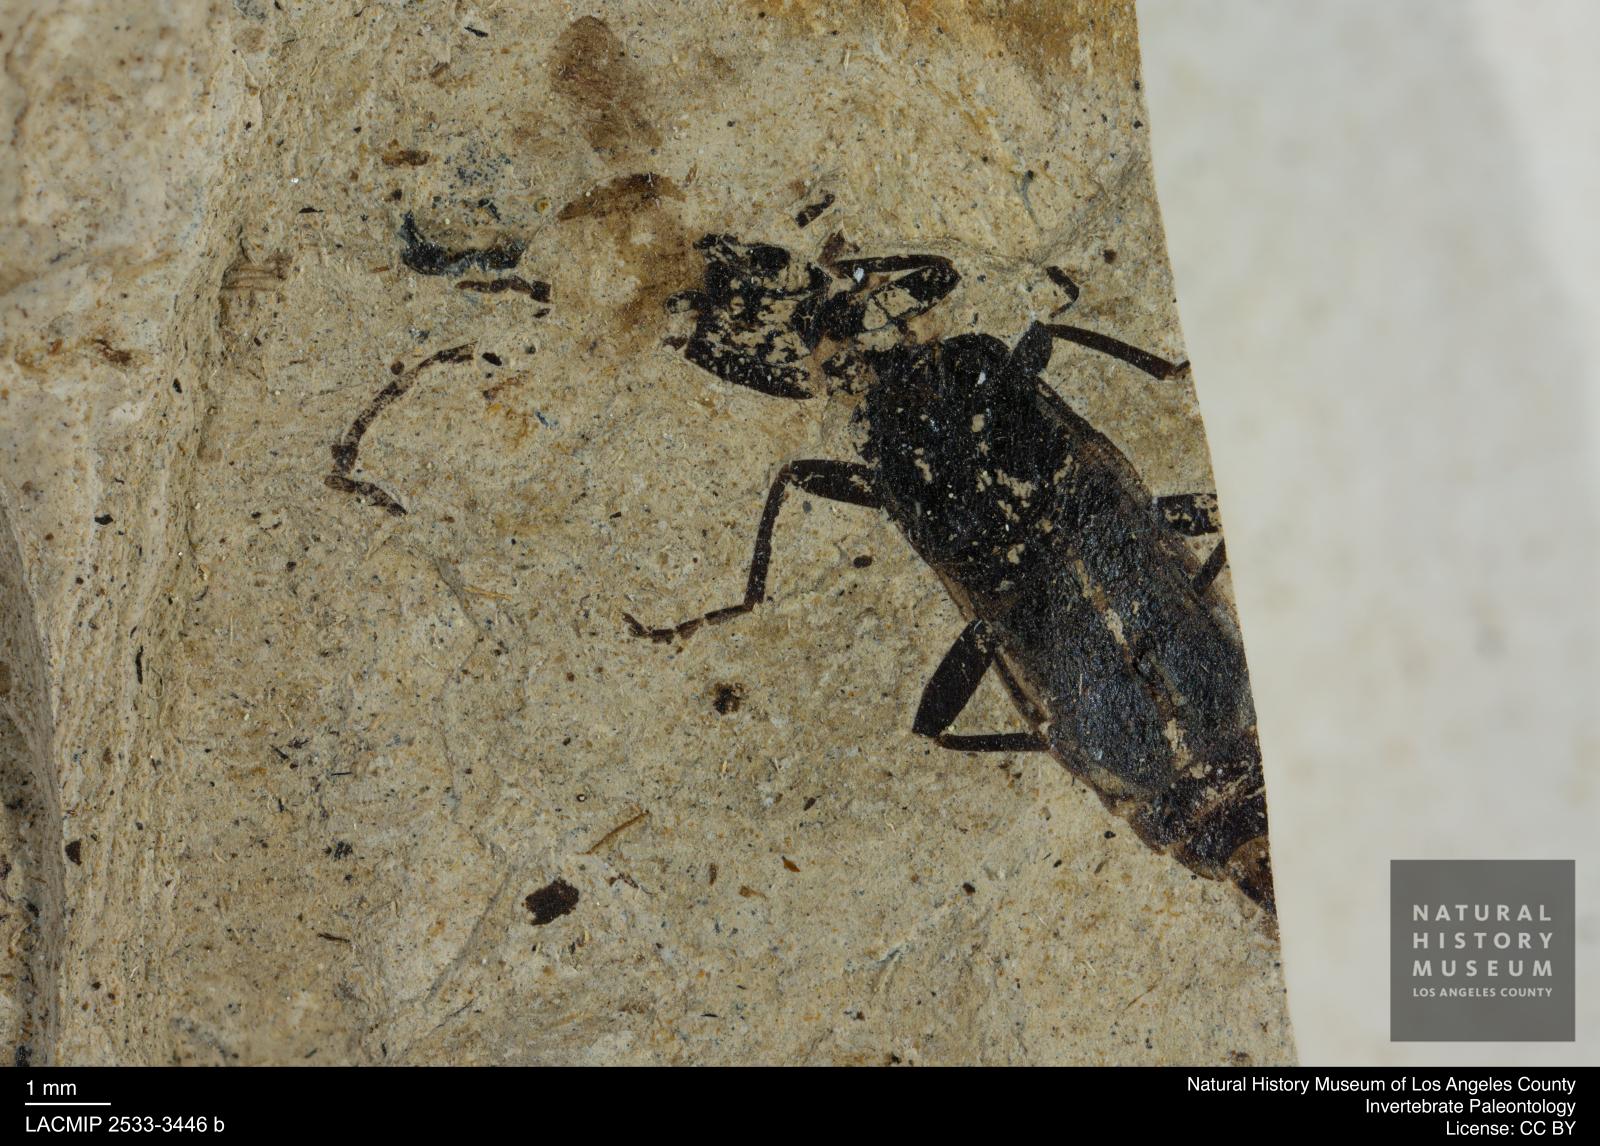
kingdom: Animalia
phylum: Arthropoda
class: Insecta
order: Coleoptera
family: Cantharidae
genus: Rhagonycha
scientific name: Rhagonycha carolynae
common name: Soldier beetle
